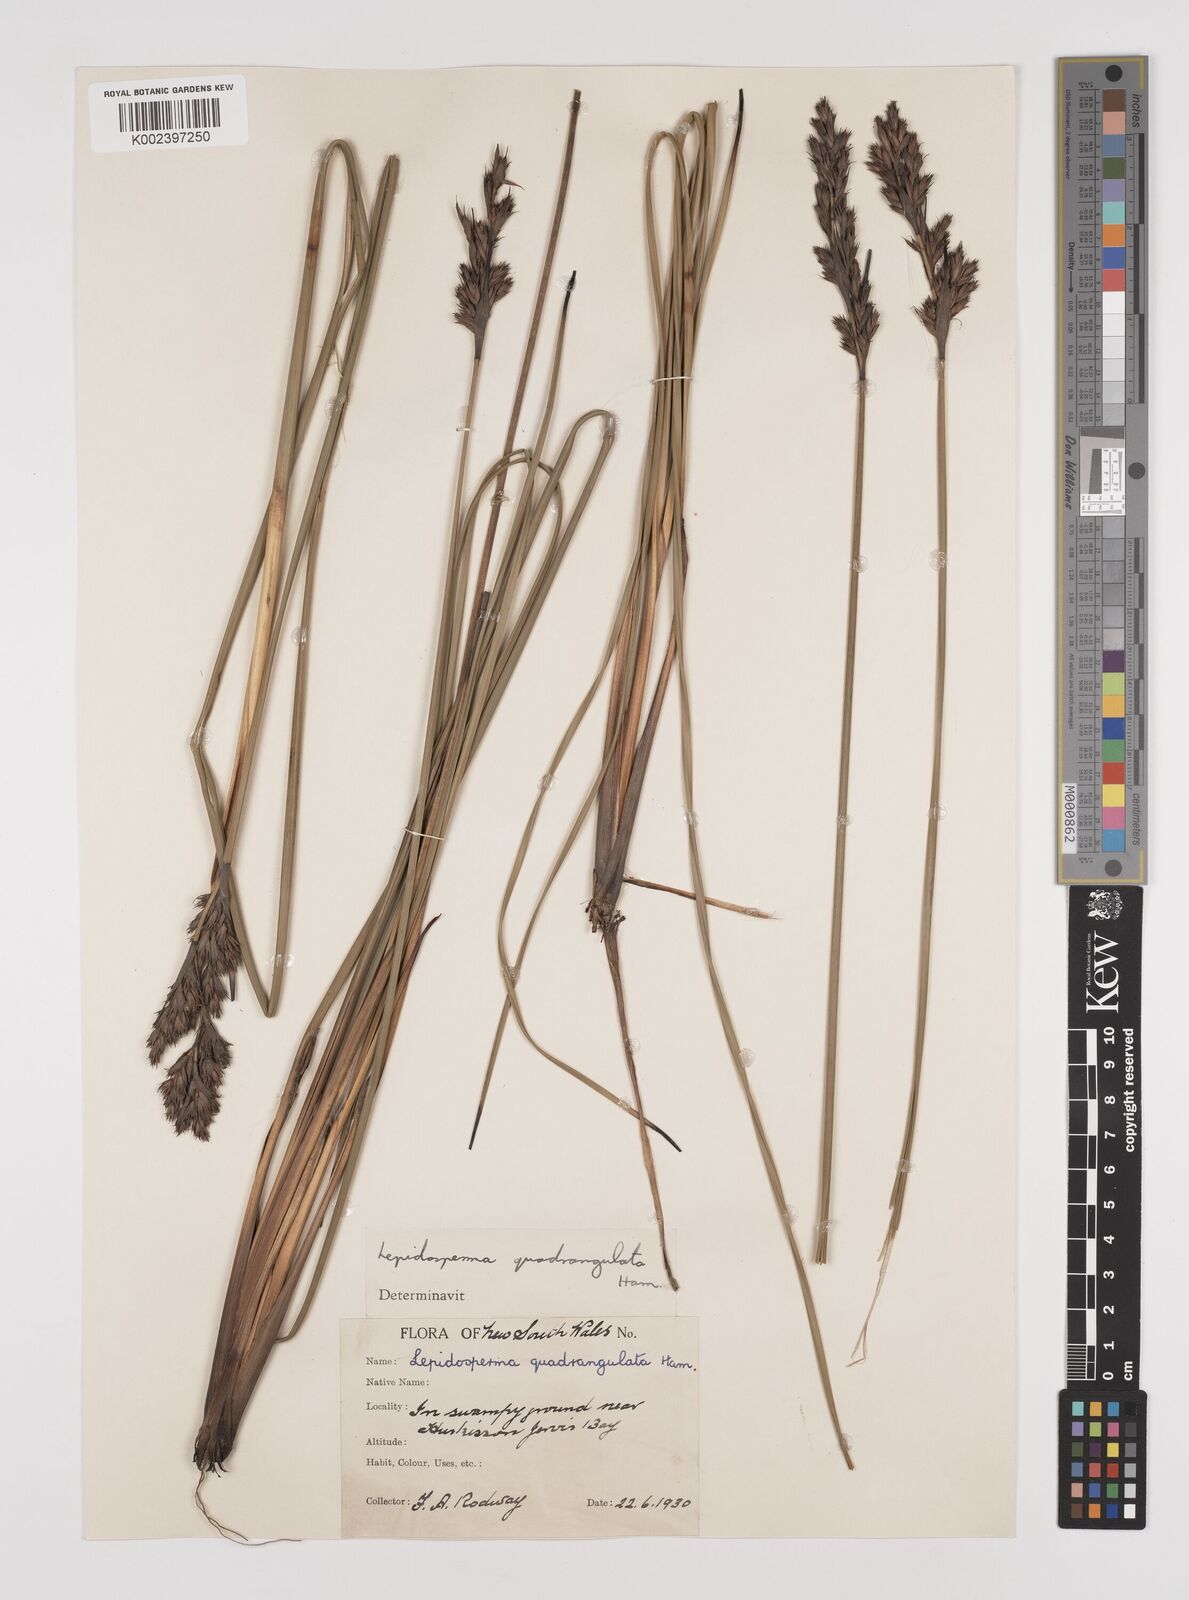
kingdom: Plantae
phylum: Tracheophyta
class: Liliopsida
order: Poales
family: Cyperaceae
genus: Lepidosperma
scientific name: Lepidosperma quadrangulatum
